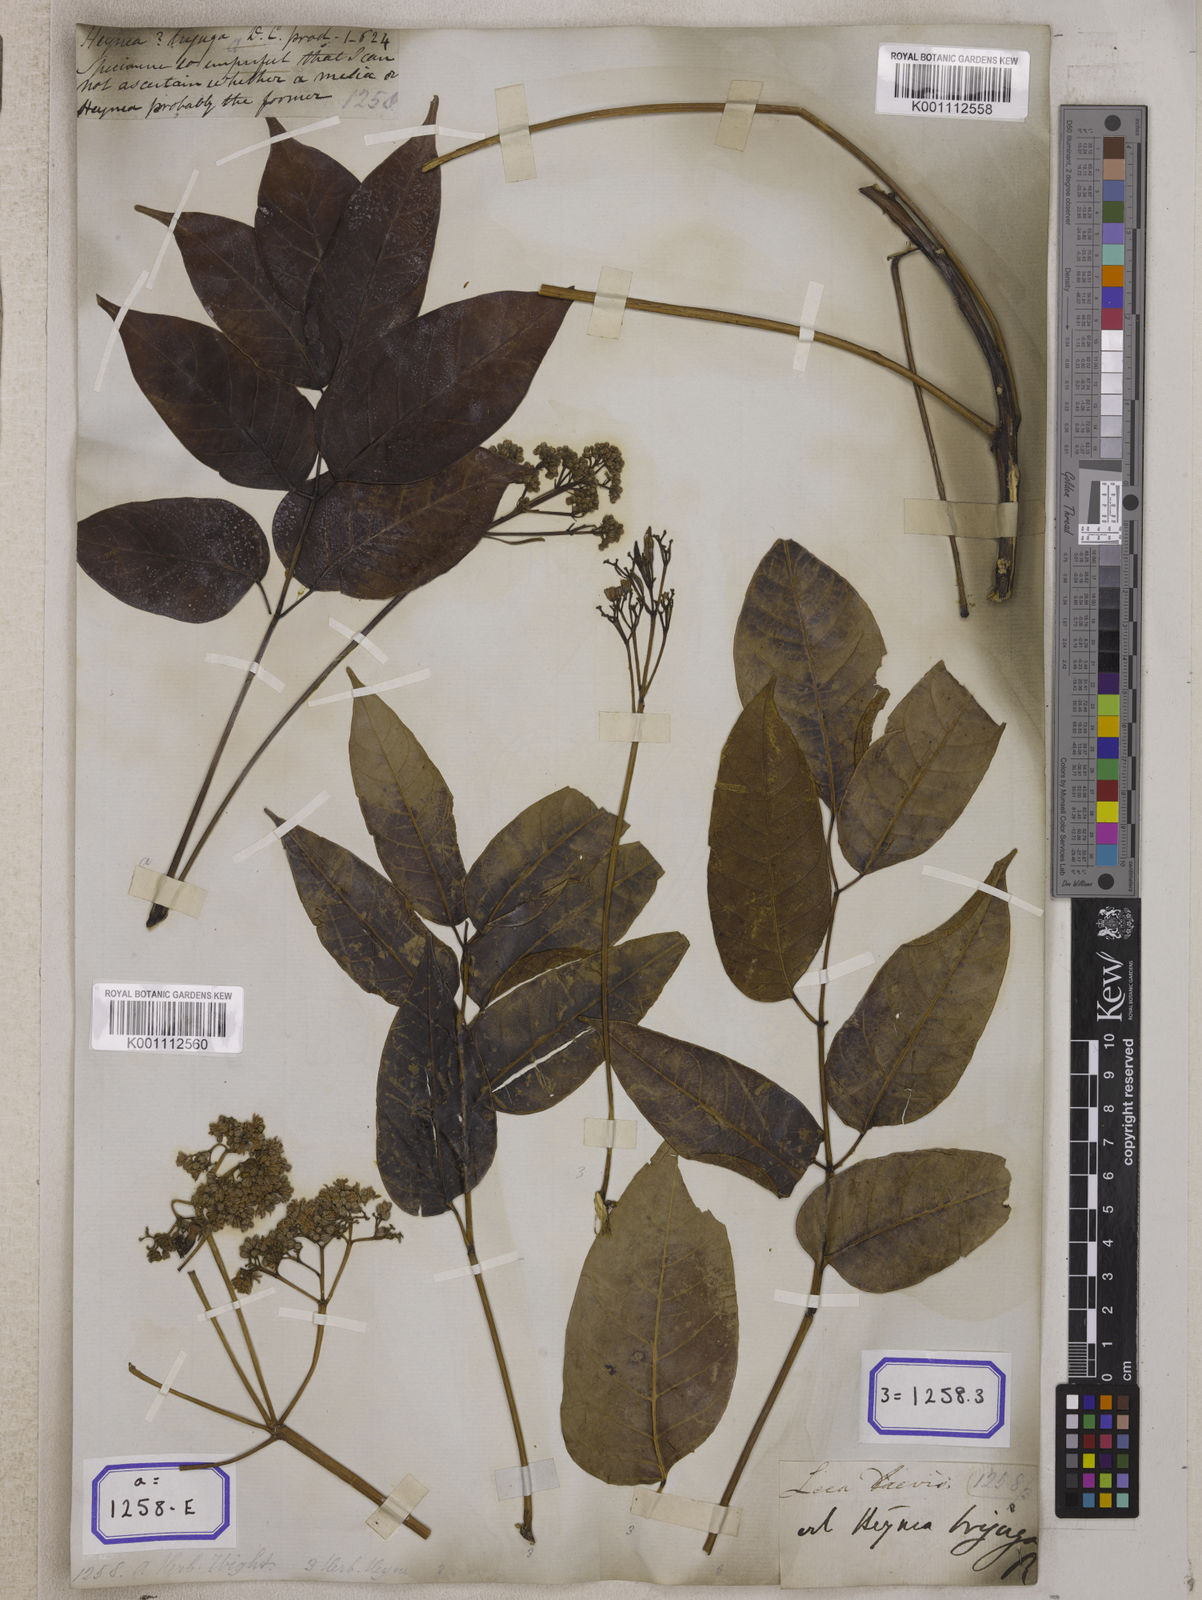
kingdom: Plantae
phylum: Tracheophyta
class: Magnoliopsida
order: Sapindales
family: Meliaceae
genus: Heynea
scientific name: Heynea trijuga
